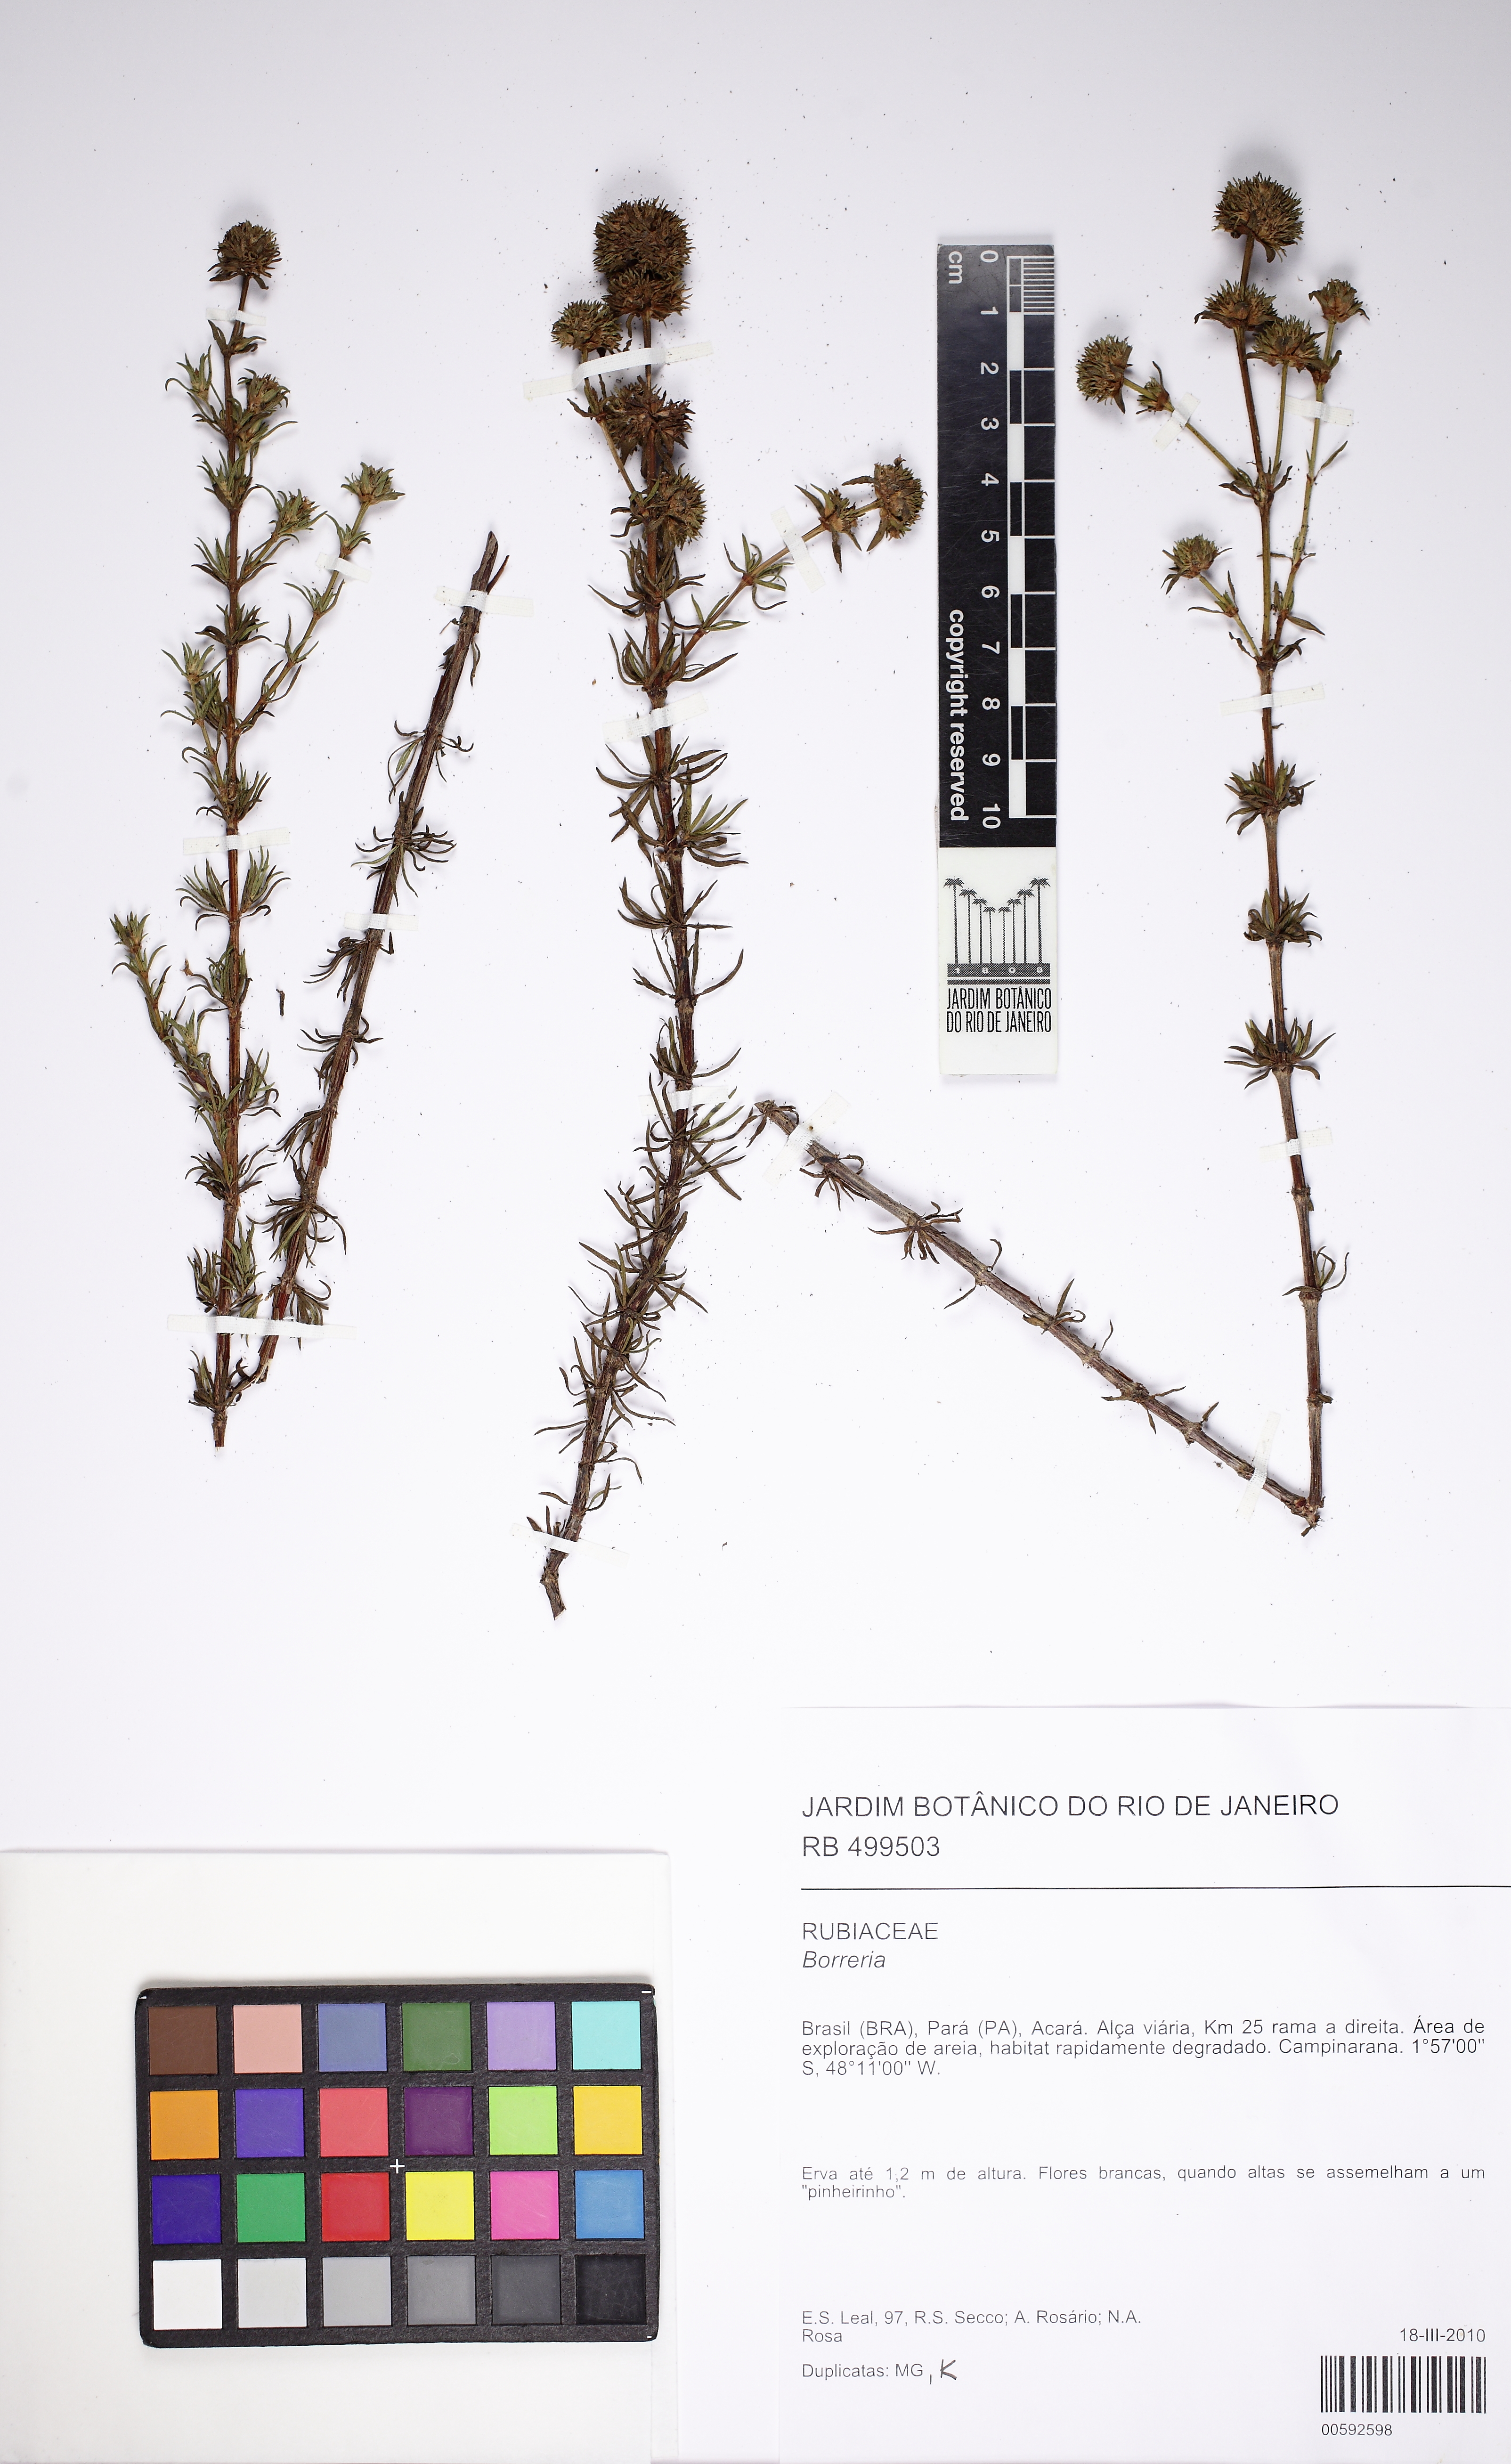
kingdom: Plantae
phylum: Tracheophyta
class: Magnoliopsida
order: Gentianales
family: Rubiaceae
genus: Spermacoce
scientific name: Spermacoce verticillata
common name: Shrubby false buttonweed
